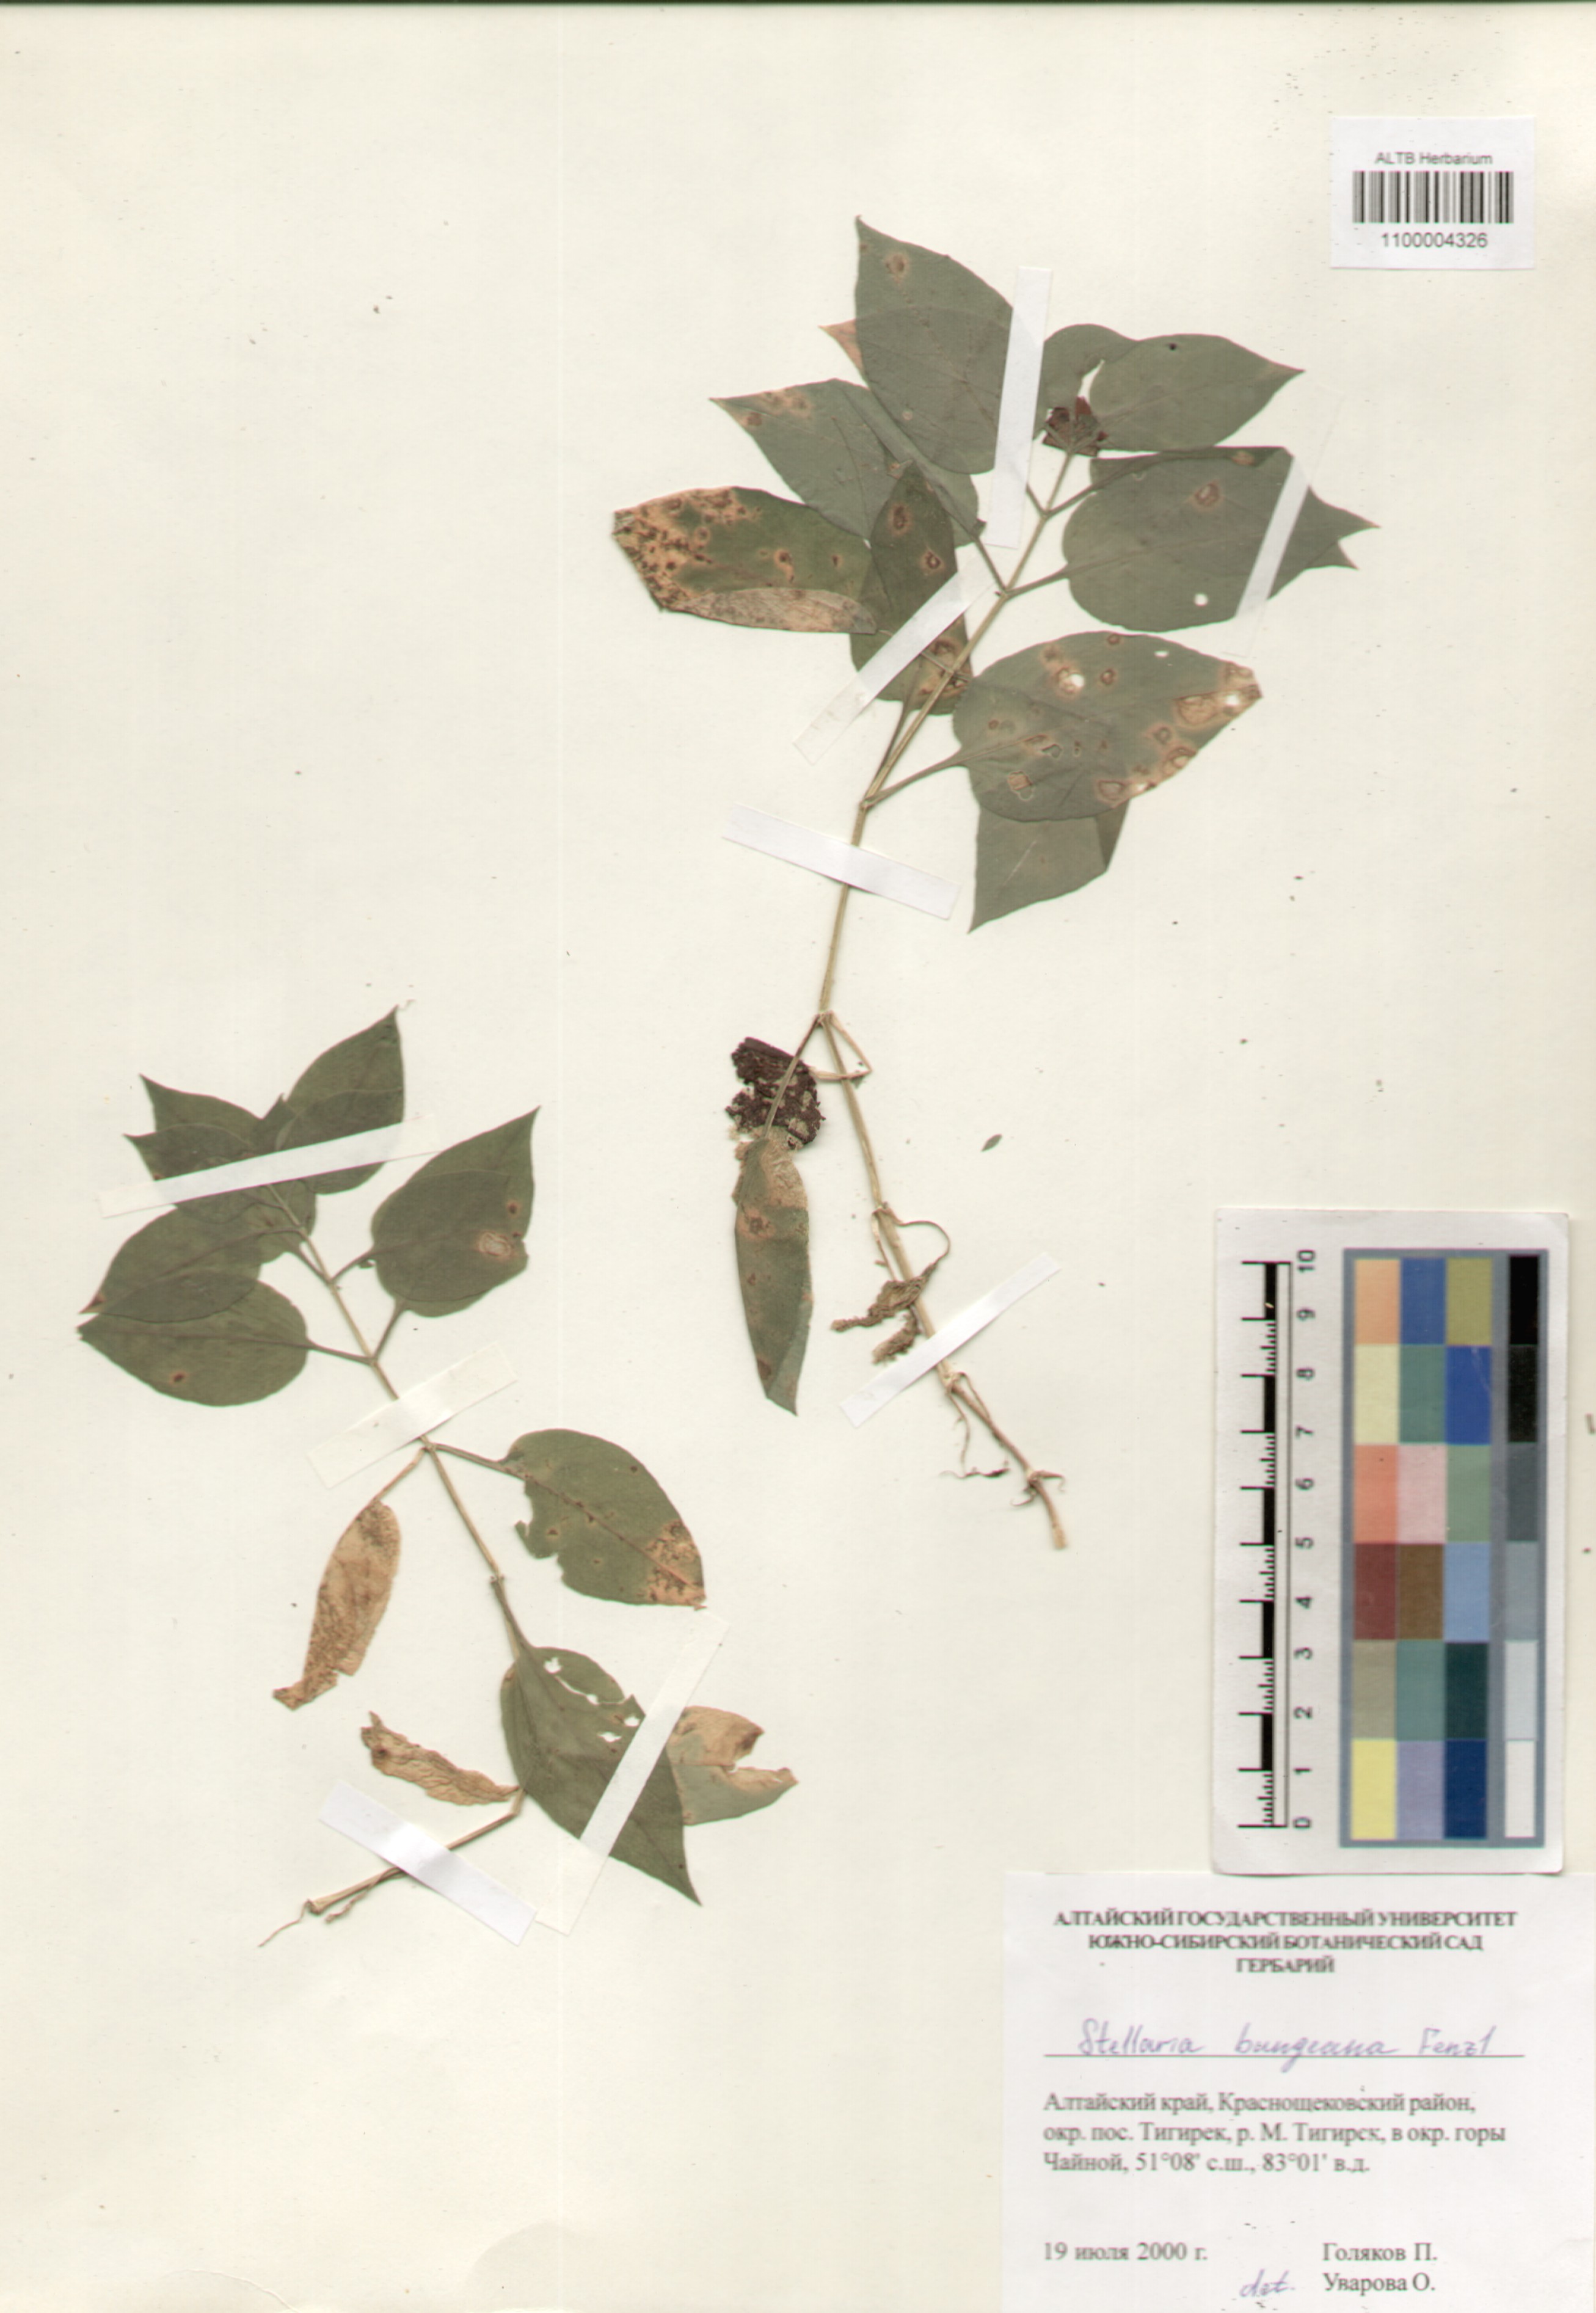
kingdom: Plantae
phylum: Tracheophyta
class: Magnoliopsida
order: Caryophyllales
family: Caryophyllaceae
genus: Stellaria
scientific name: Stellaria bungeana
